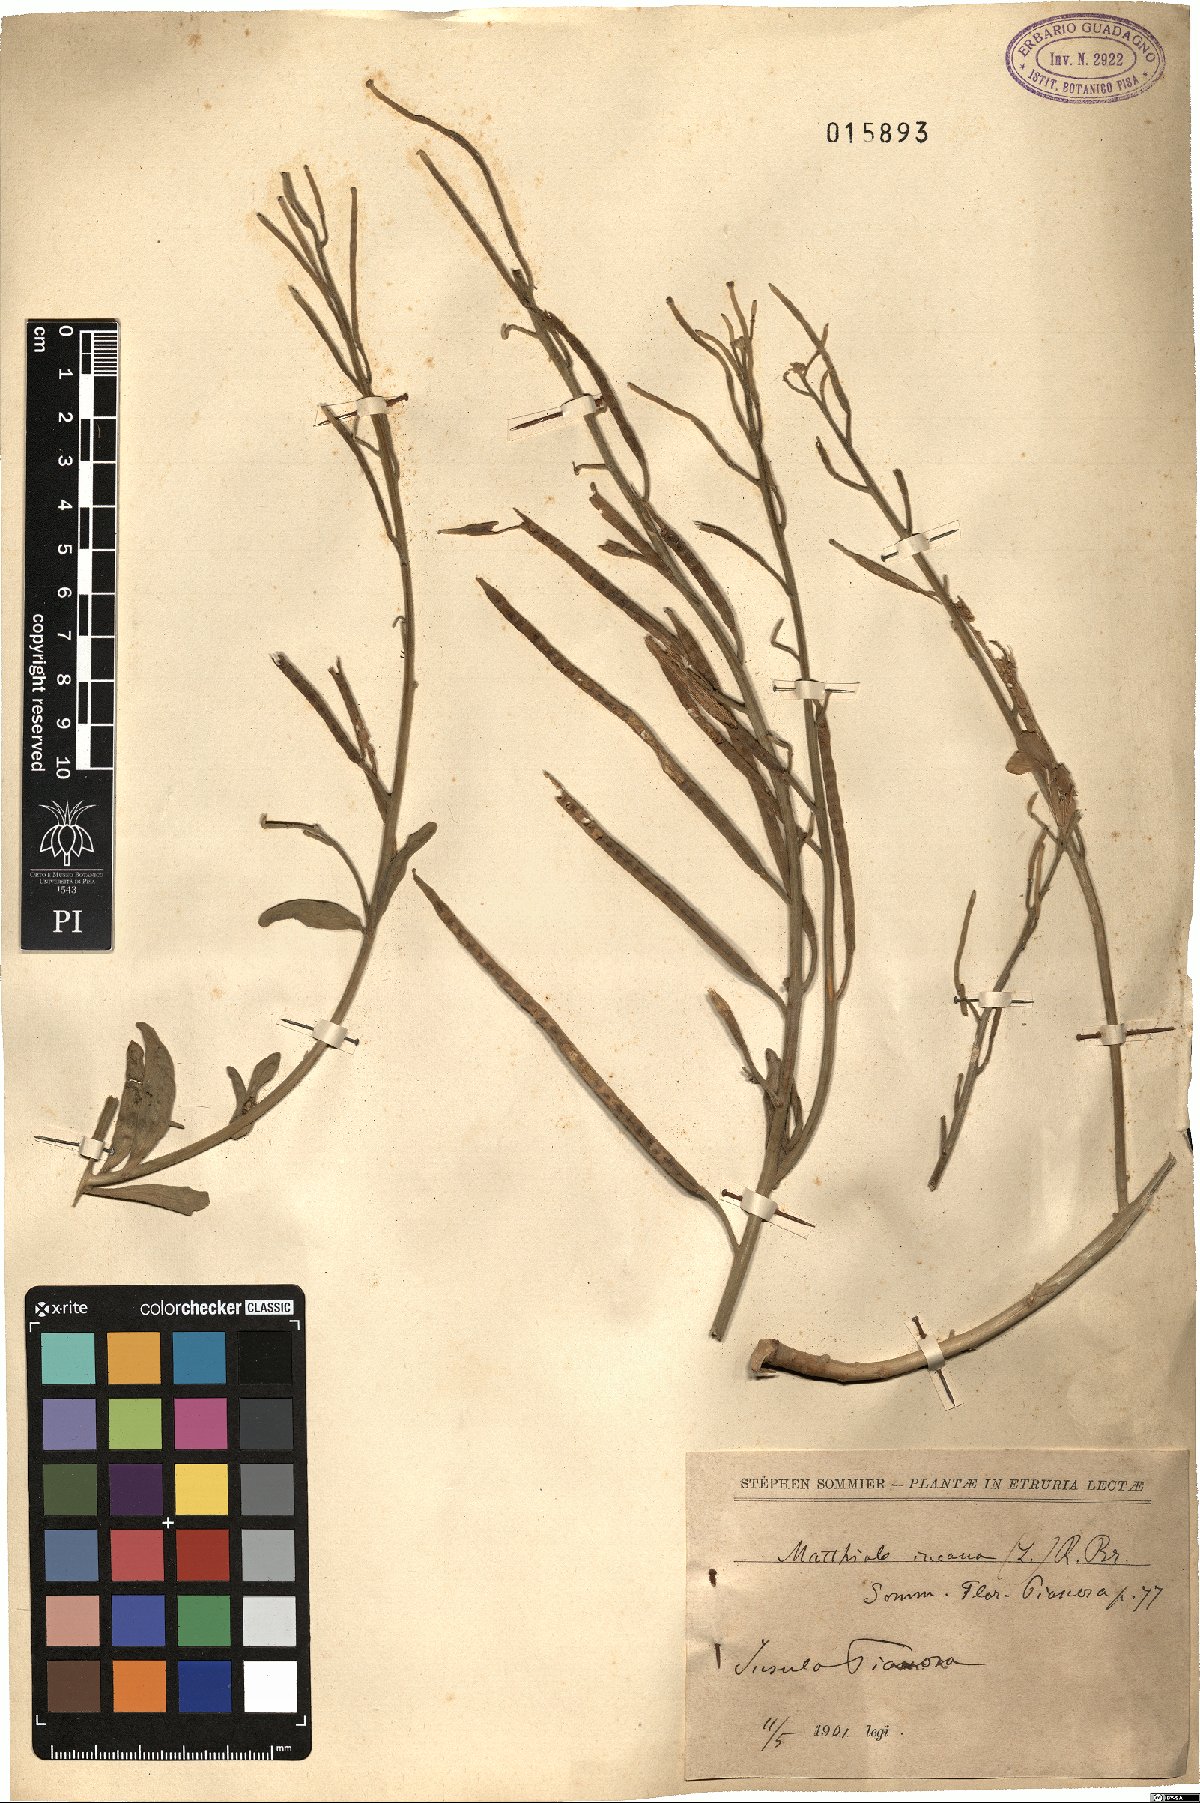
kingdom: Plantae
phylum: Tracheophyta
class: Magnoliopsida
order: Brassicales
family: Brassicaceae
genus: Matthiola
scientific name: Matthiola incana
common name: Hoary stock
